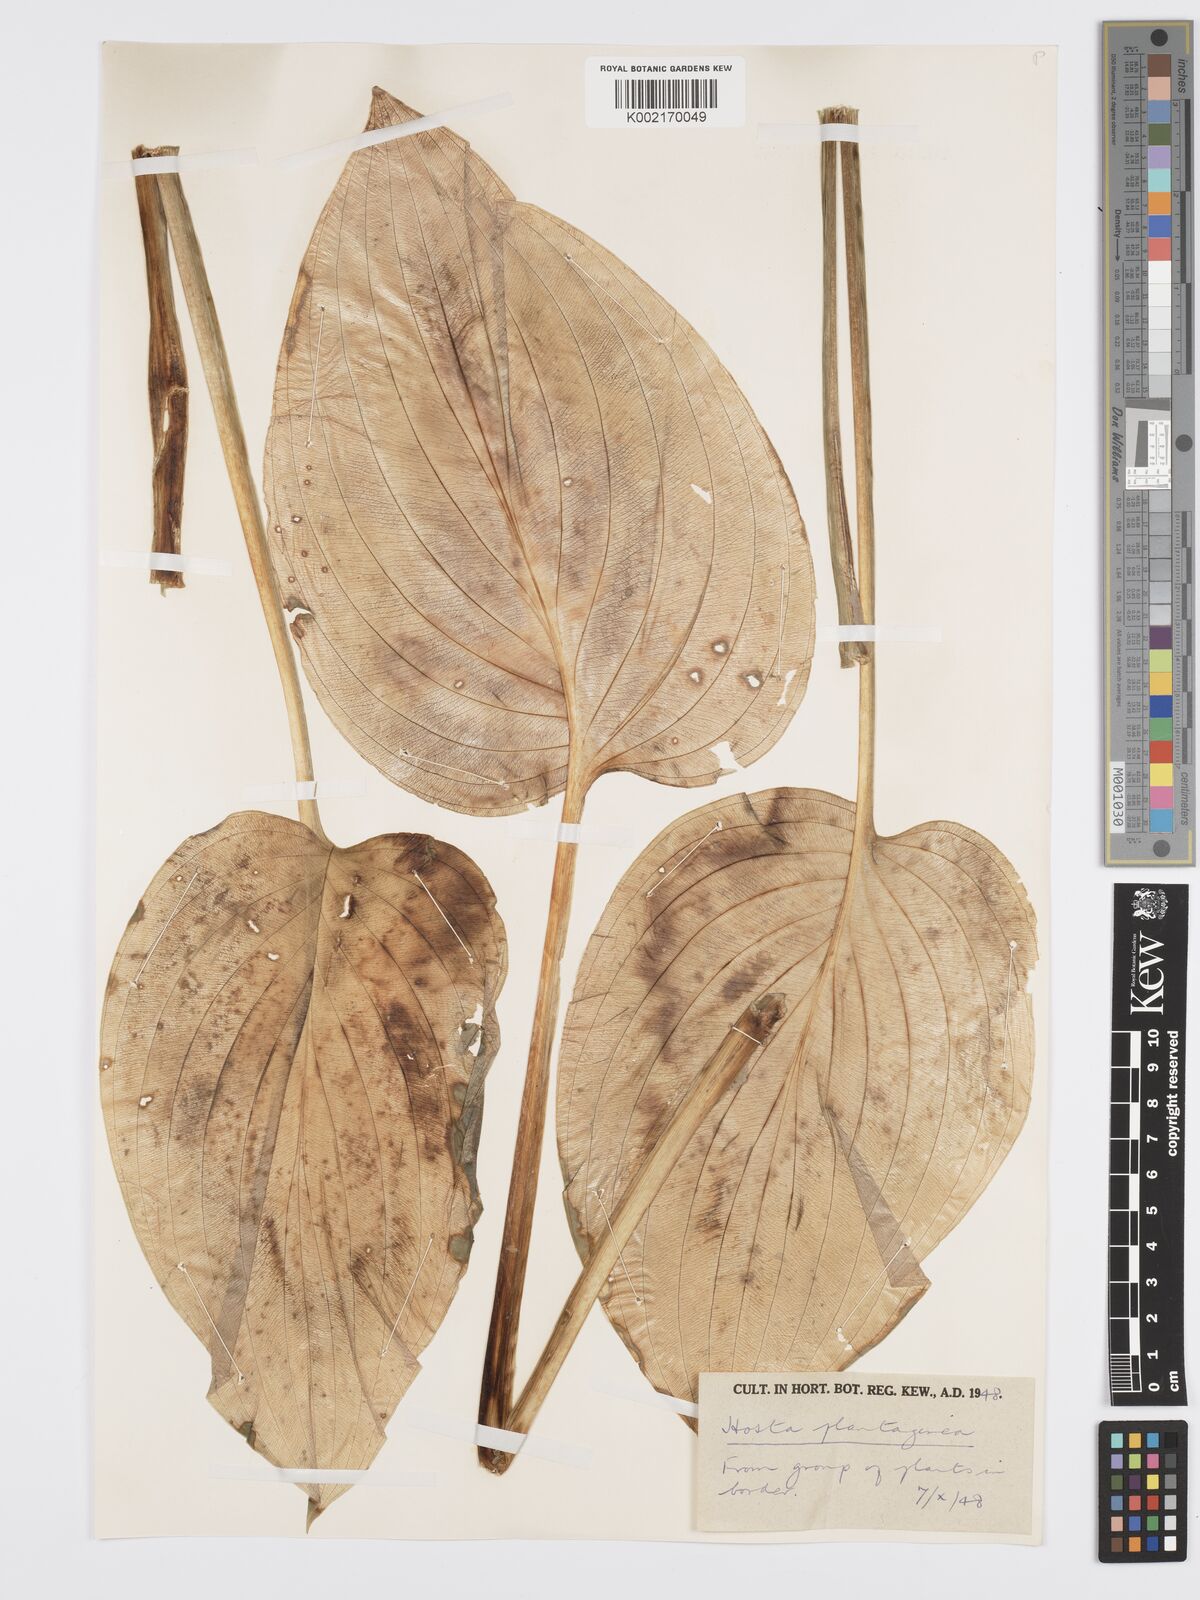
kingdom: Plantae
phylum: Tracheophyta
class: Liliopsida
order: Asparagales
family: Asparagaceae
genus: Hosta
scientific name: Hosta plantaginea
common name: August-lily
